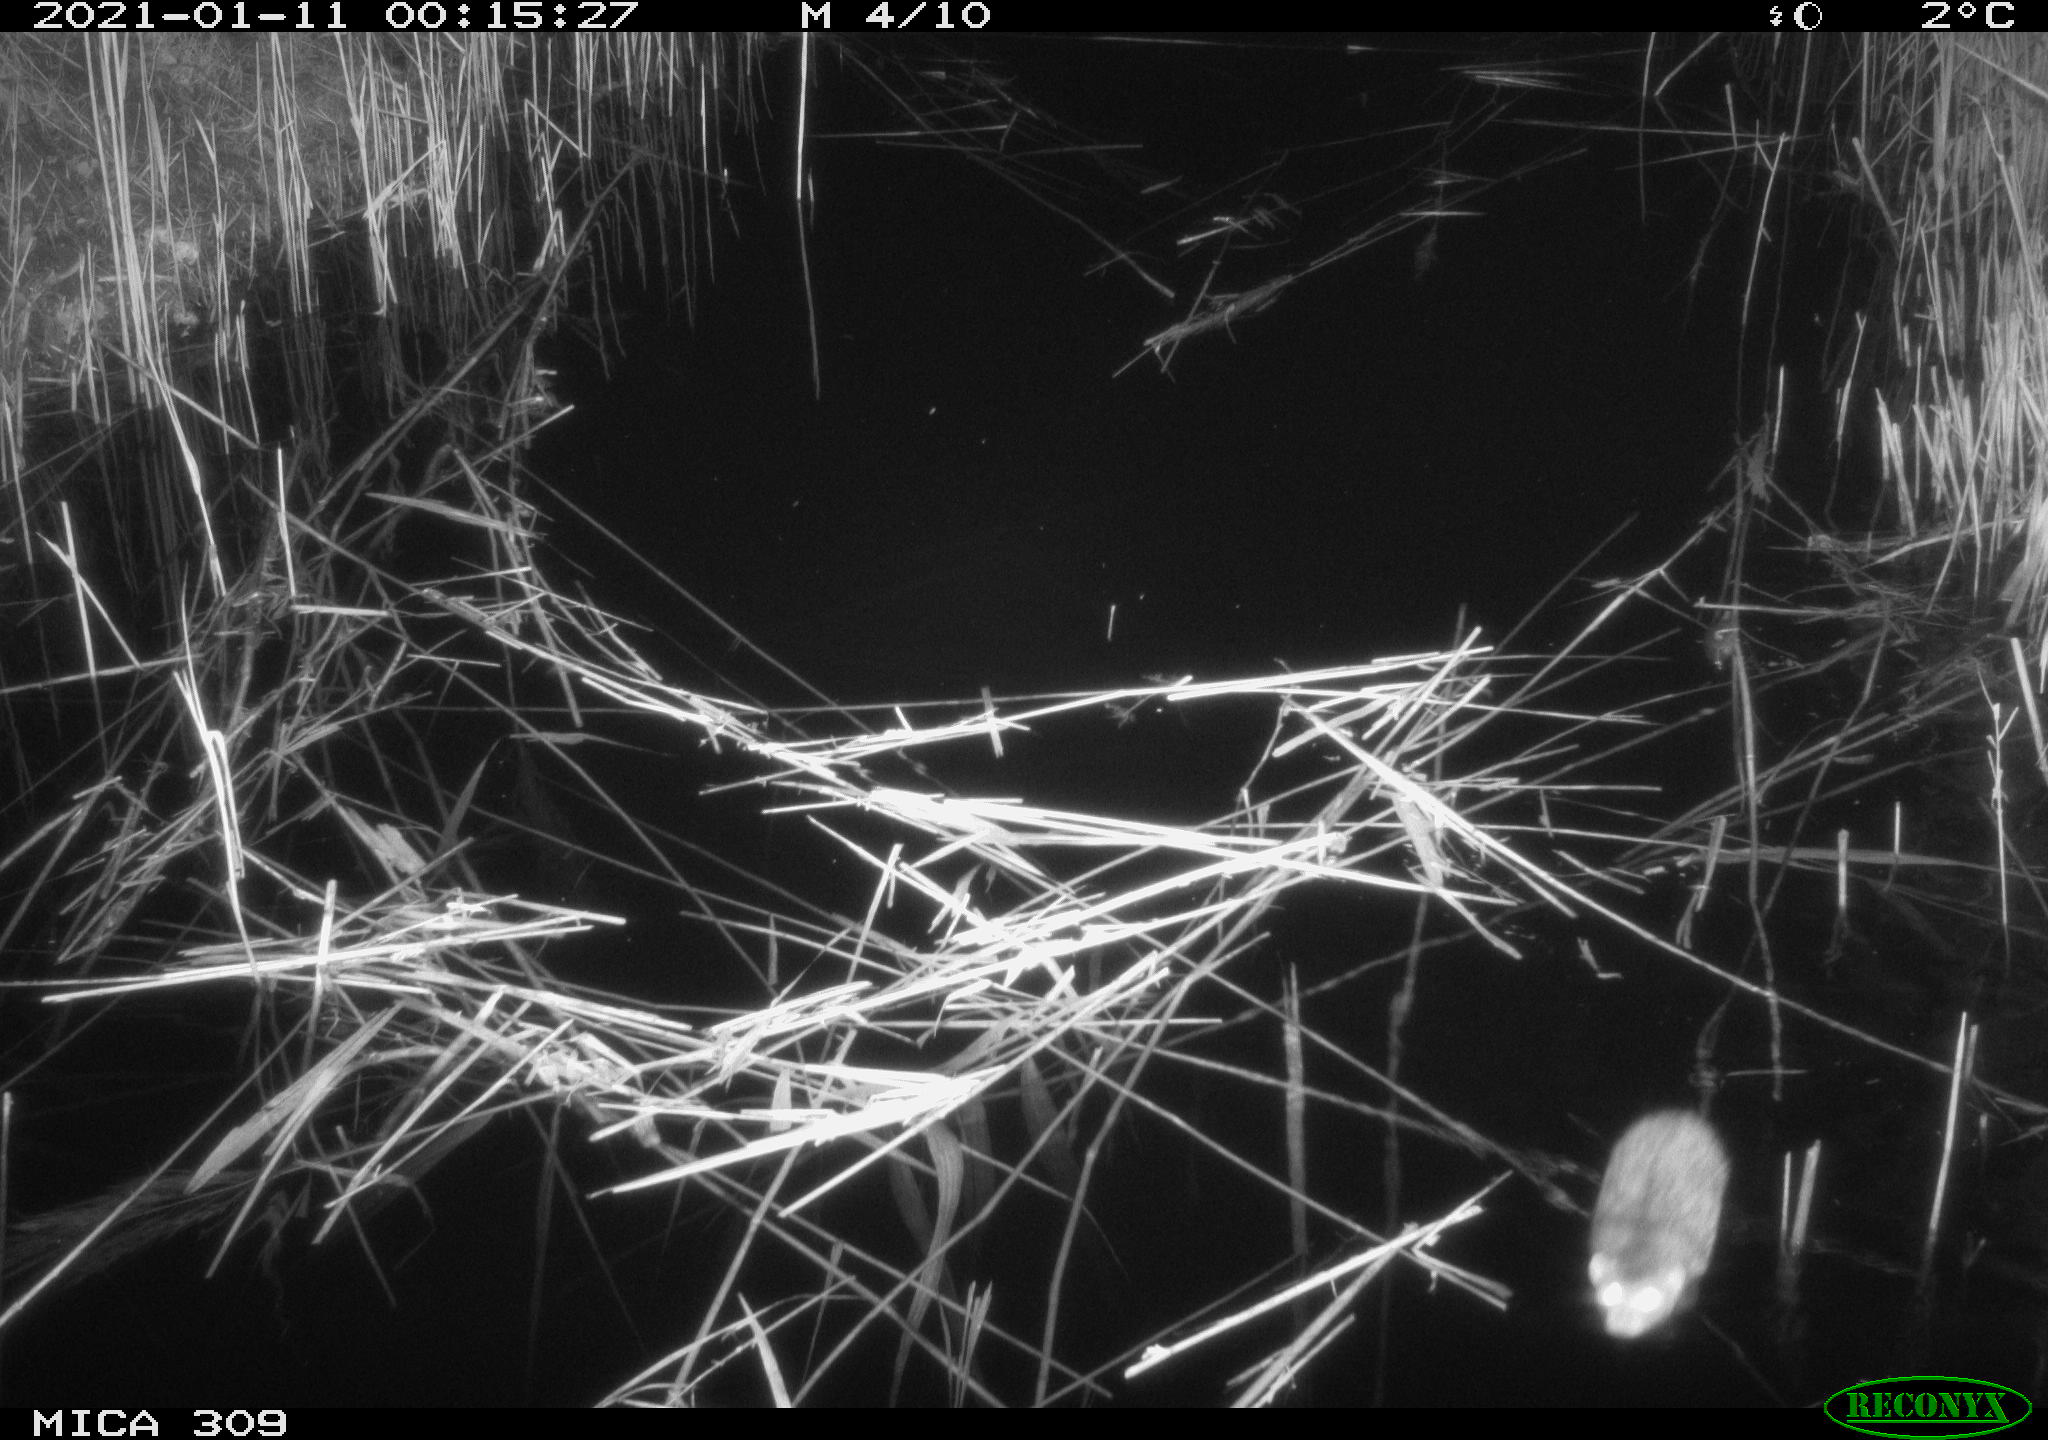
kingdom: Animalia
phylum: Chordata
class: Mammalia
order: Rodentia
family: Muridae
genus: Rattus
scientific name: Rattus norvegicus
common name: Brown rat
